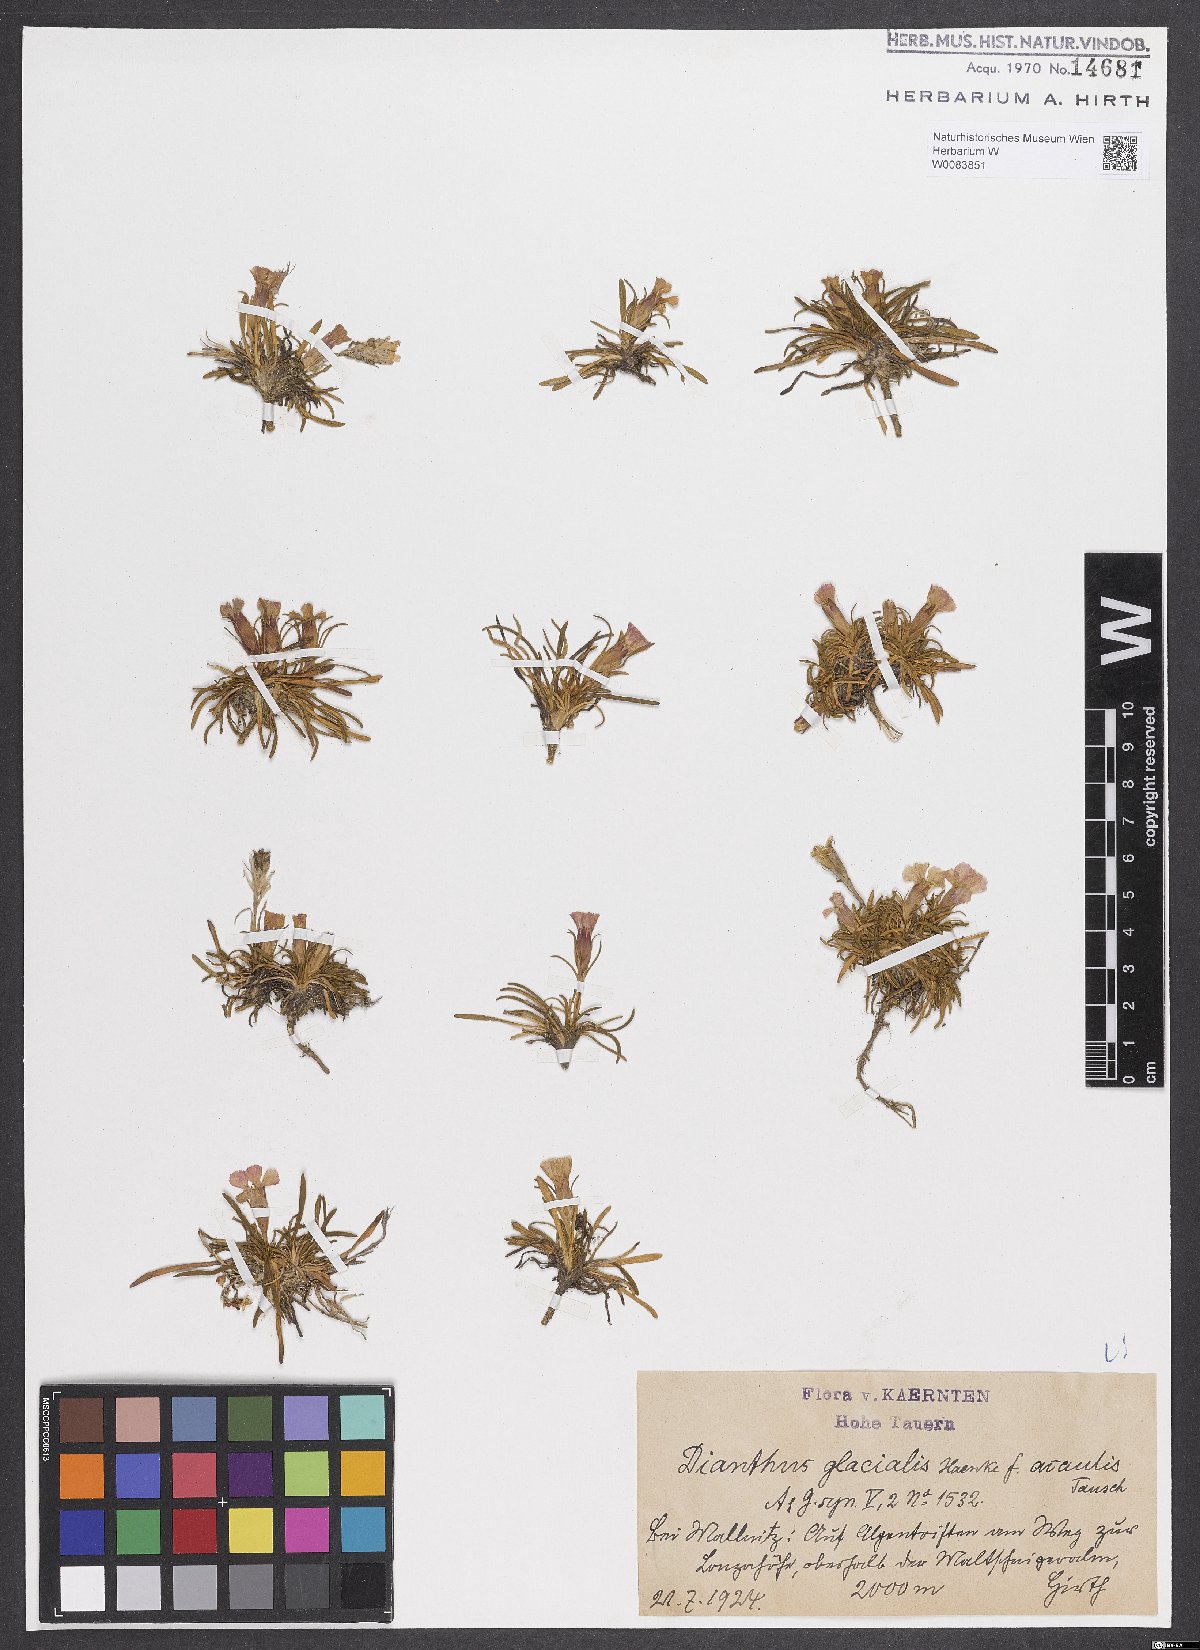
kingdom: Plantae
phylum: Tracheophyta
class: Magnoliopsida
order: Caryophyllales
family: Caryophyllaceae
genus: Dianthus
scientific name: Dianthus glacialis
